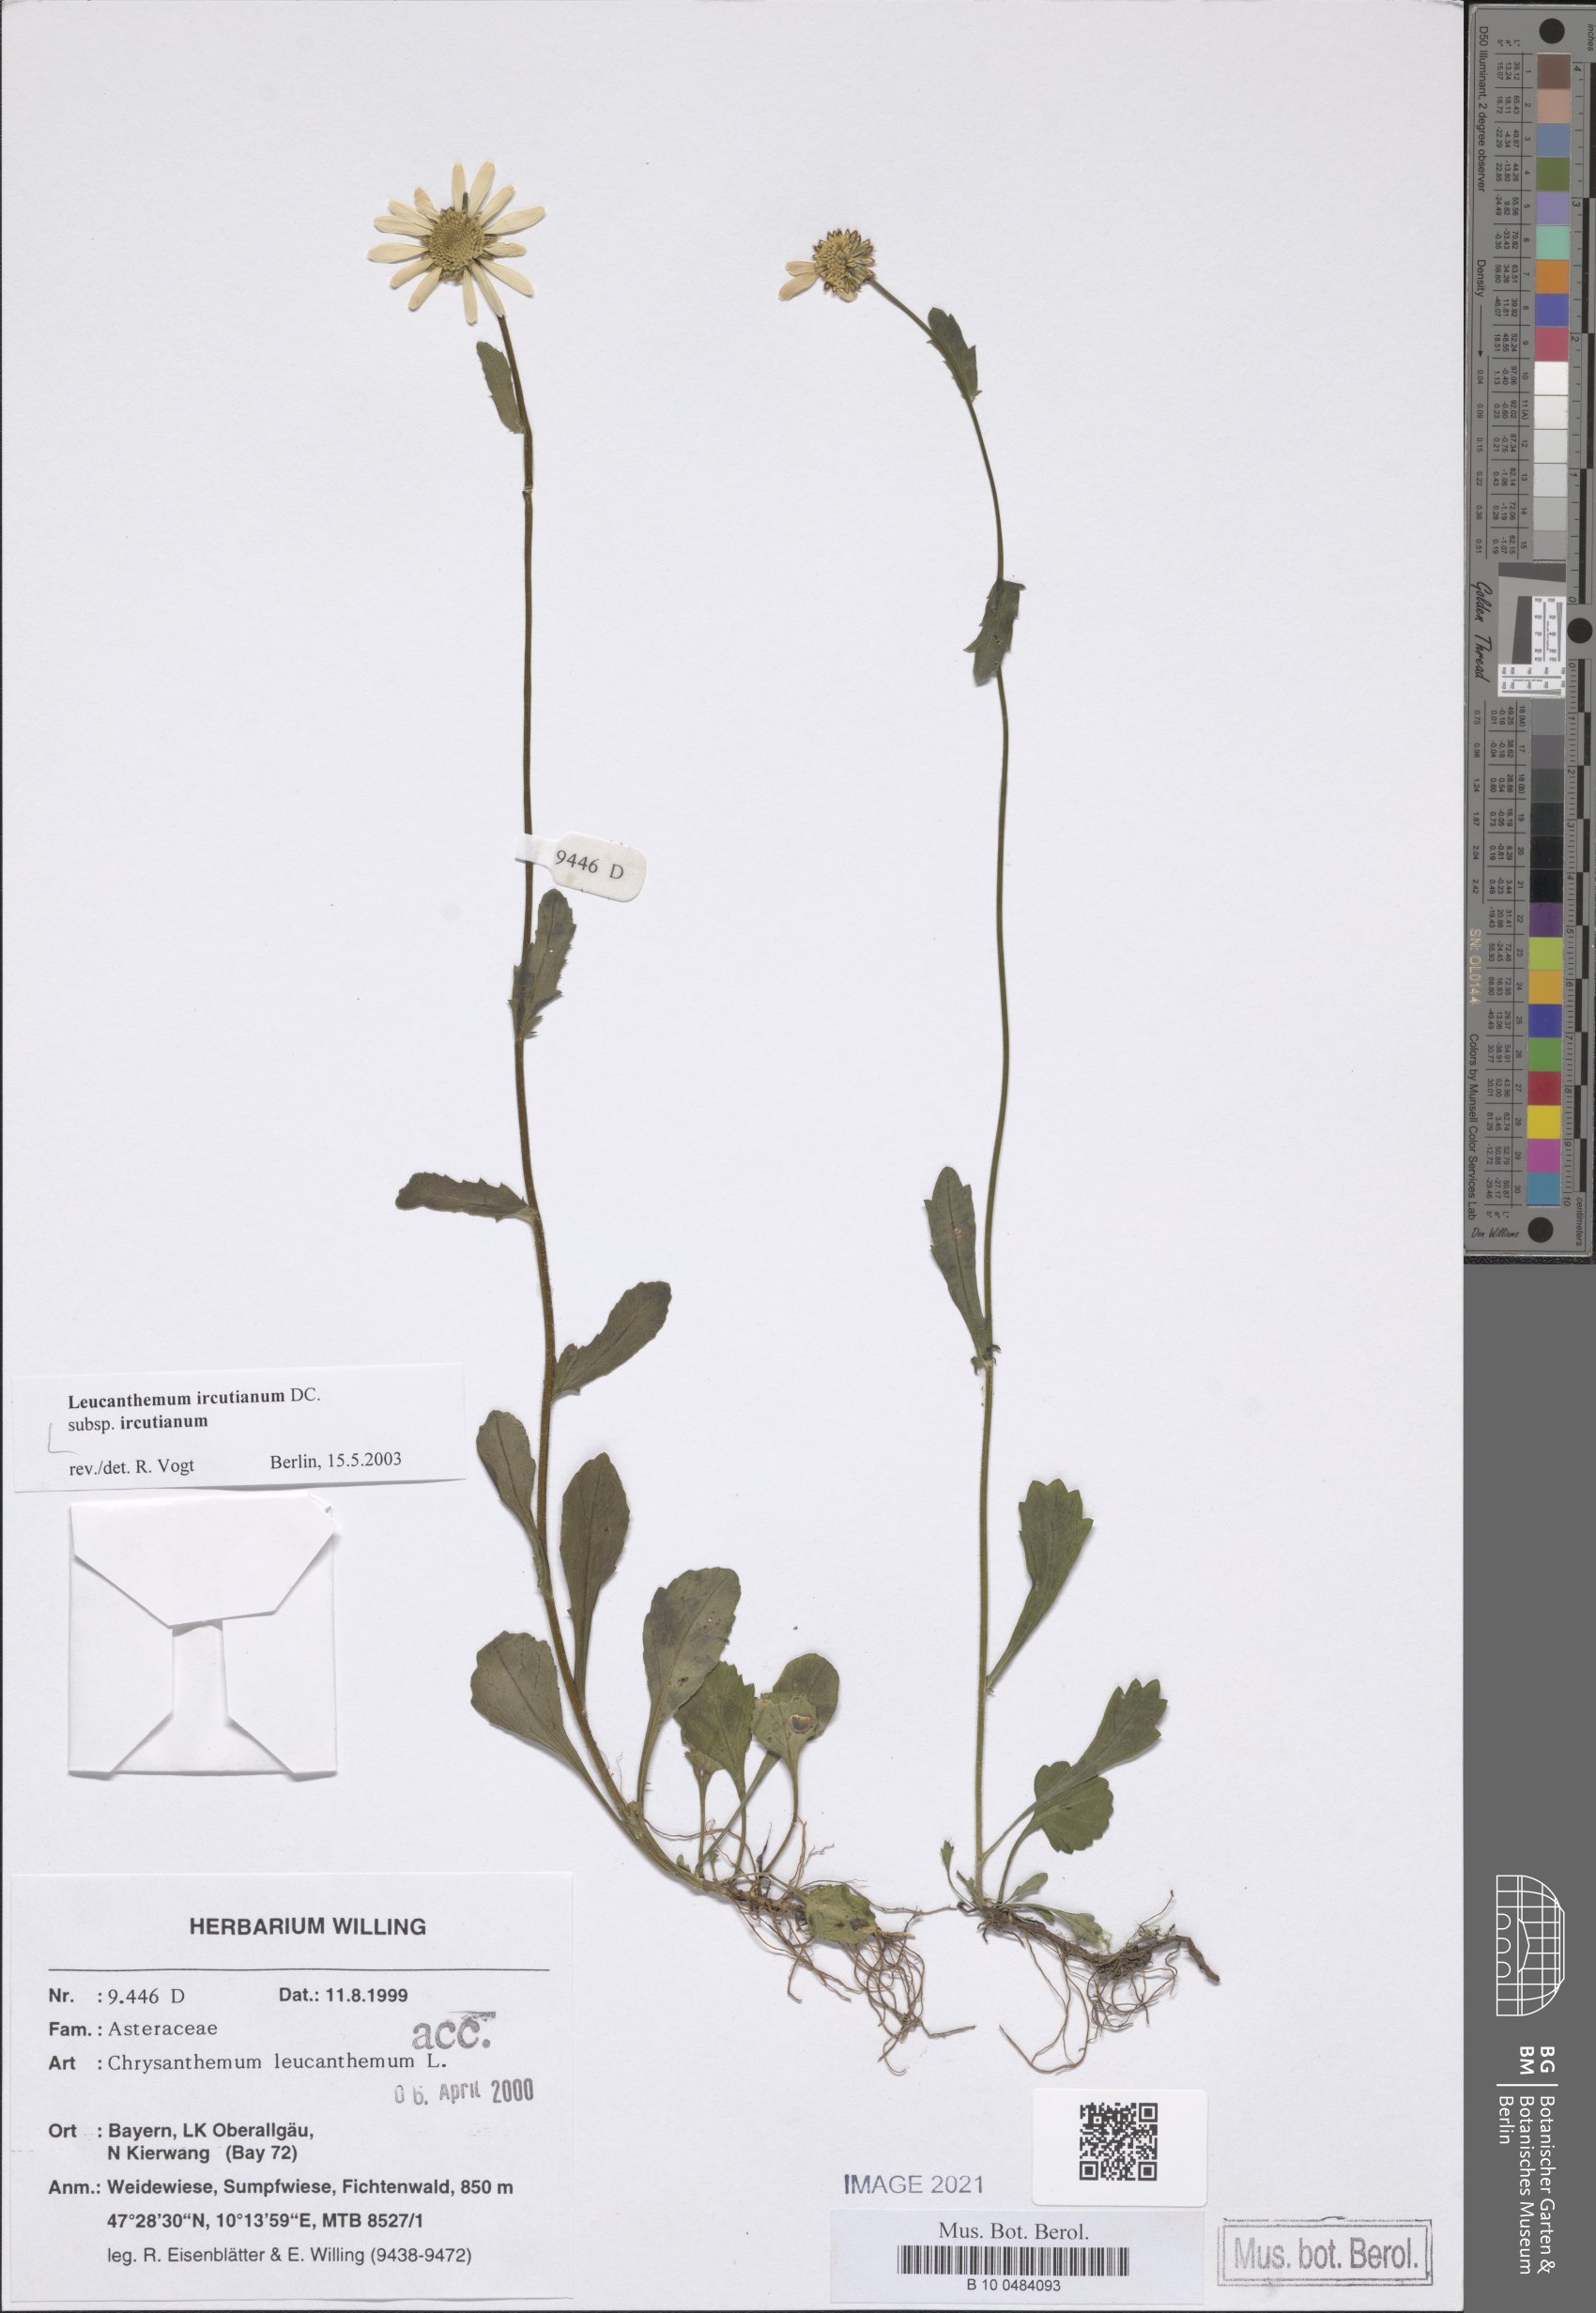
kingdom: Plantae
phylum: Tracheophyta
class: Magnoliopsida
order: Asterales
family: Asteraceae
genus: Leucanthemum
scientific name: Leucanthemum ircutianum
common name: Daisy
